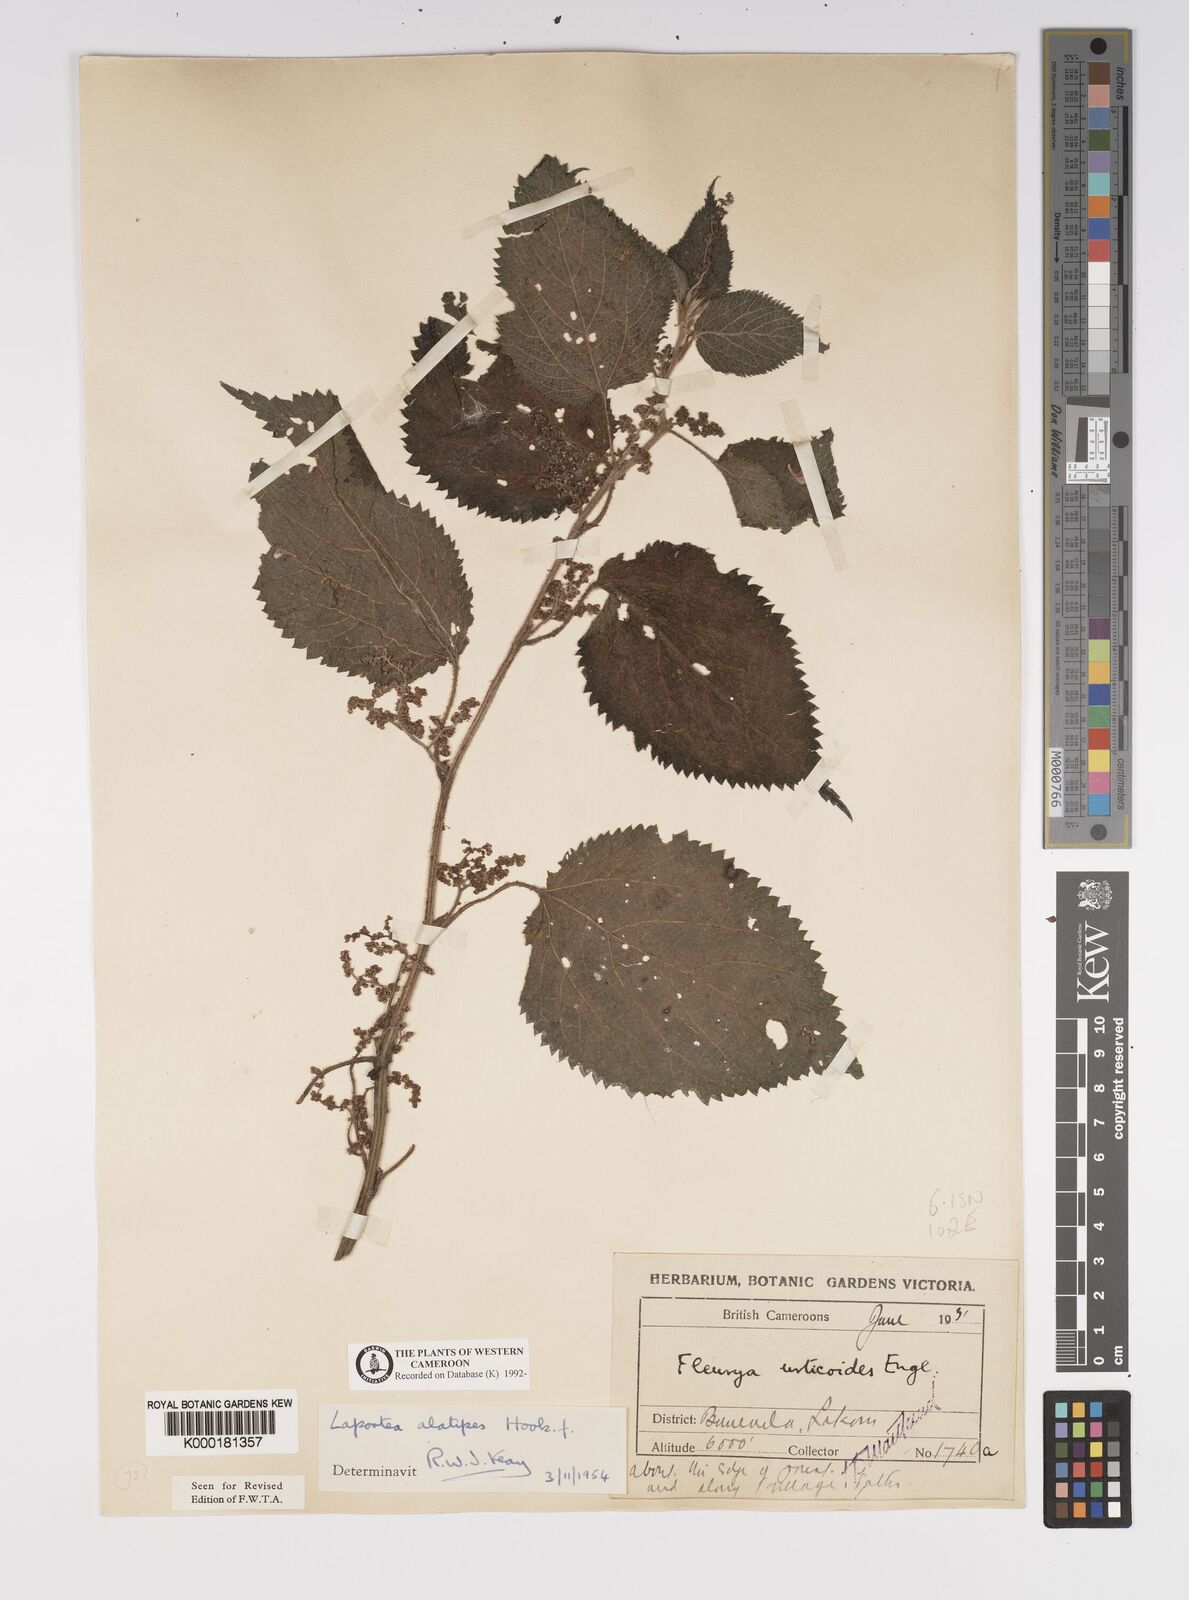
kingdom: Plantae
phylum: Tracheophyta
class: Magnoliopsida
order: Rosales
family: Urticaceae
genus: Laportea
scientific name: Laportea alatipes
